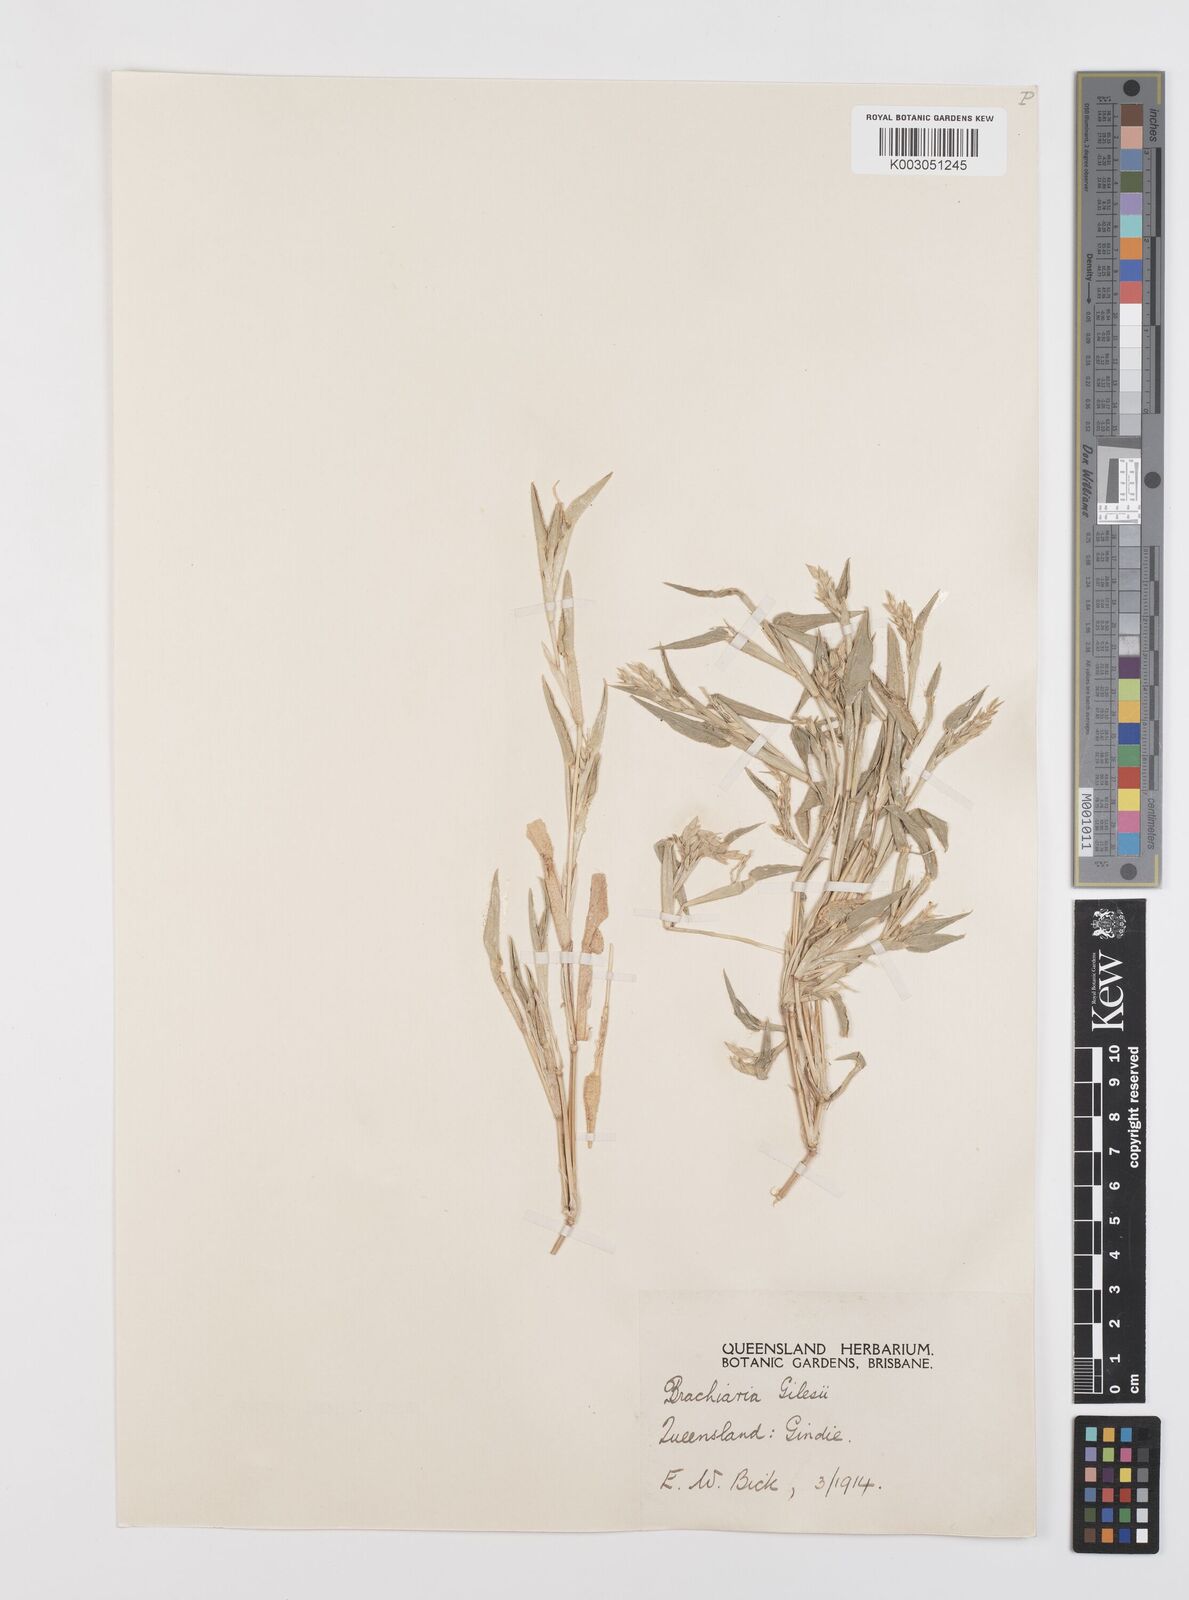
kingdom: Plantae
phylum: Tracheophyta
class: Liliopsida
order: Poales
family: Poaceae
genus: Urochloa
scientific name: Urochloa gilesii
